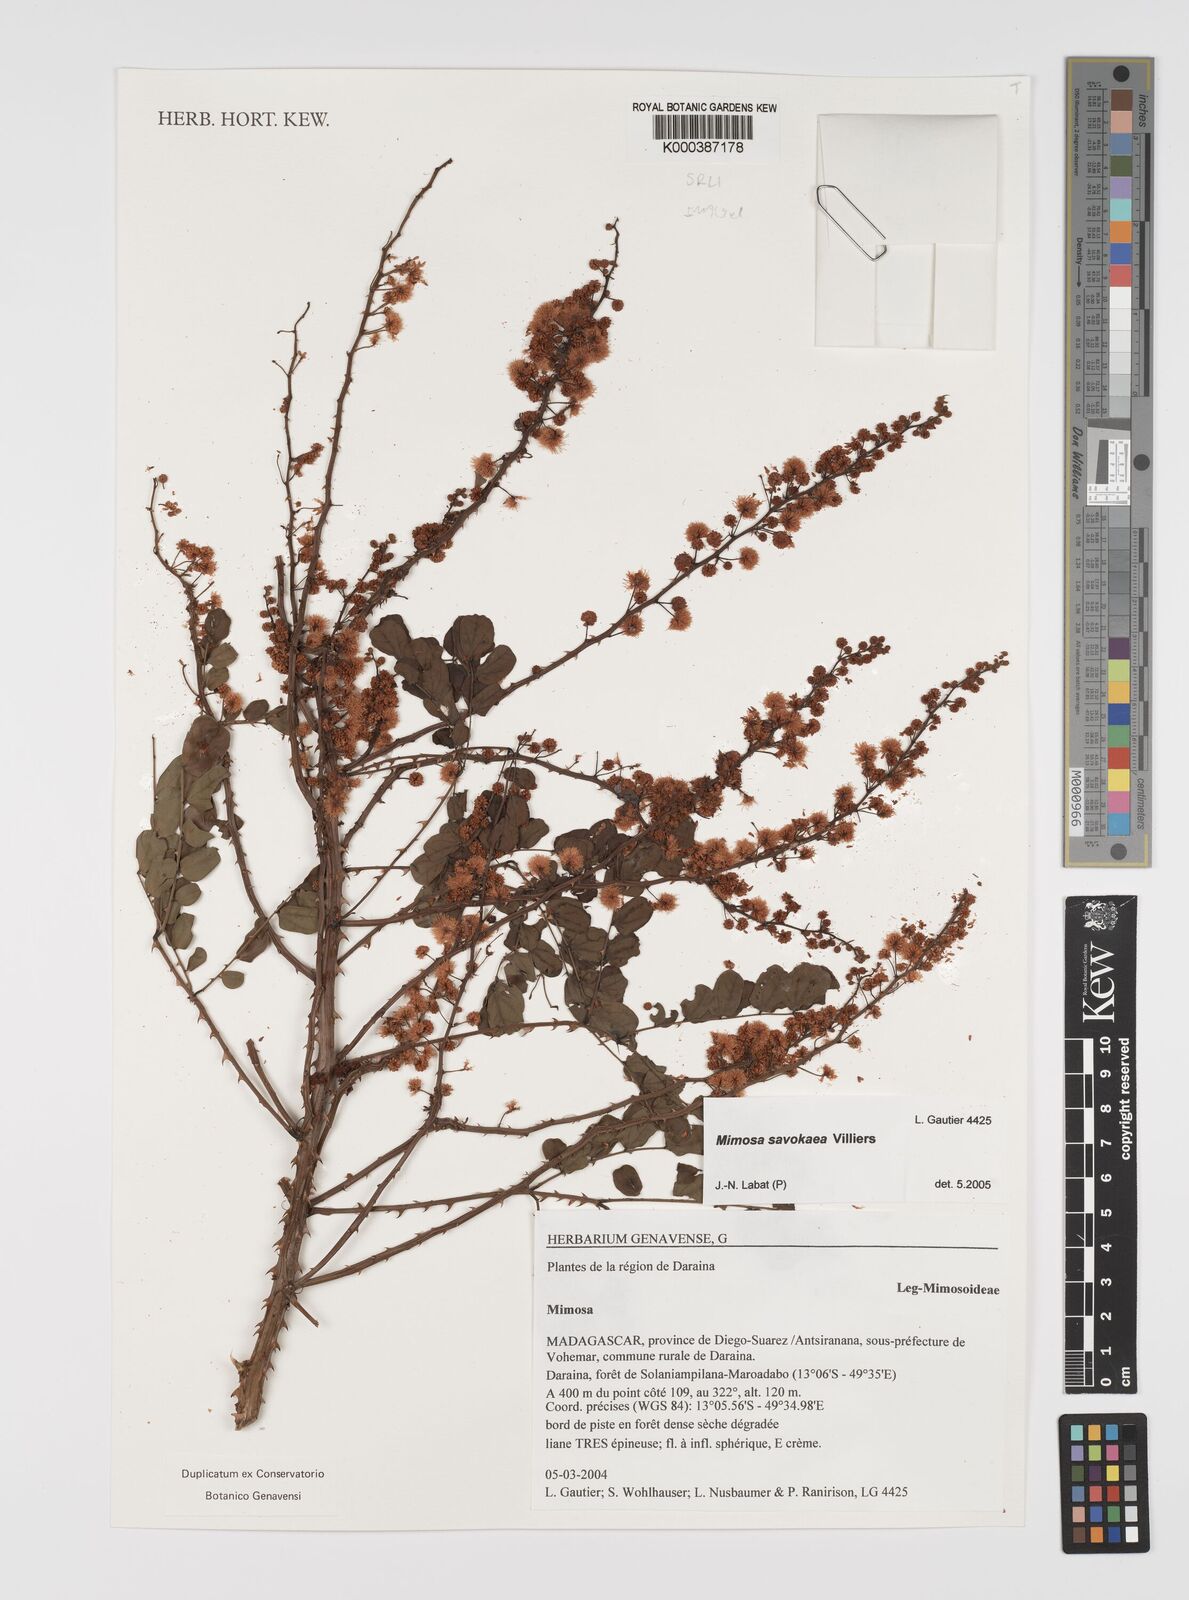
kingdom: Plantae
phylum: Tracheophyta
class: Magnoliopsida
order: Fabales
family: Fabaceae
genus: Mimosa
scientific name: Mimosa savokaea
